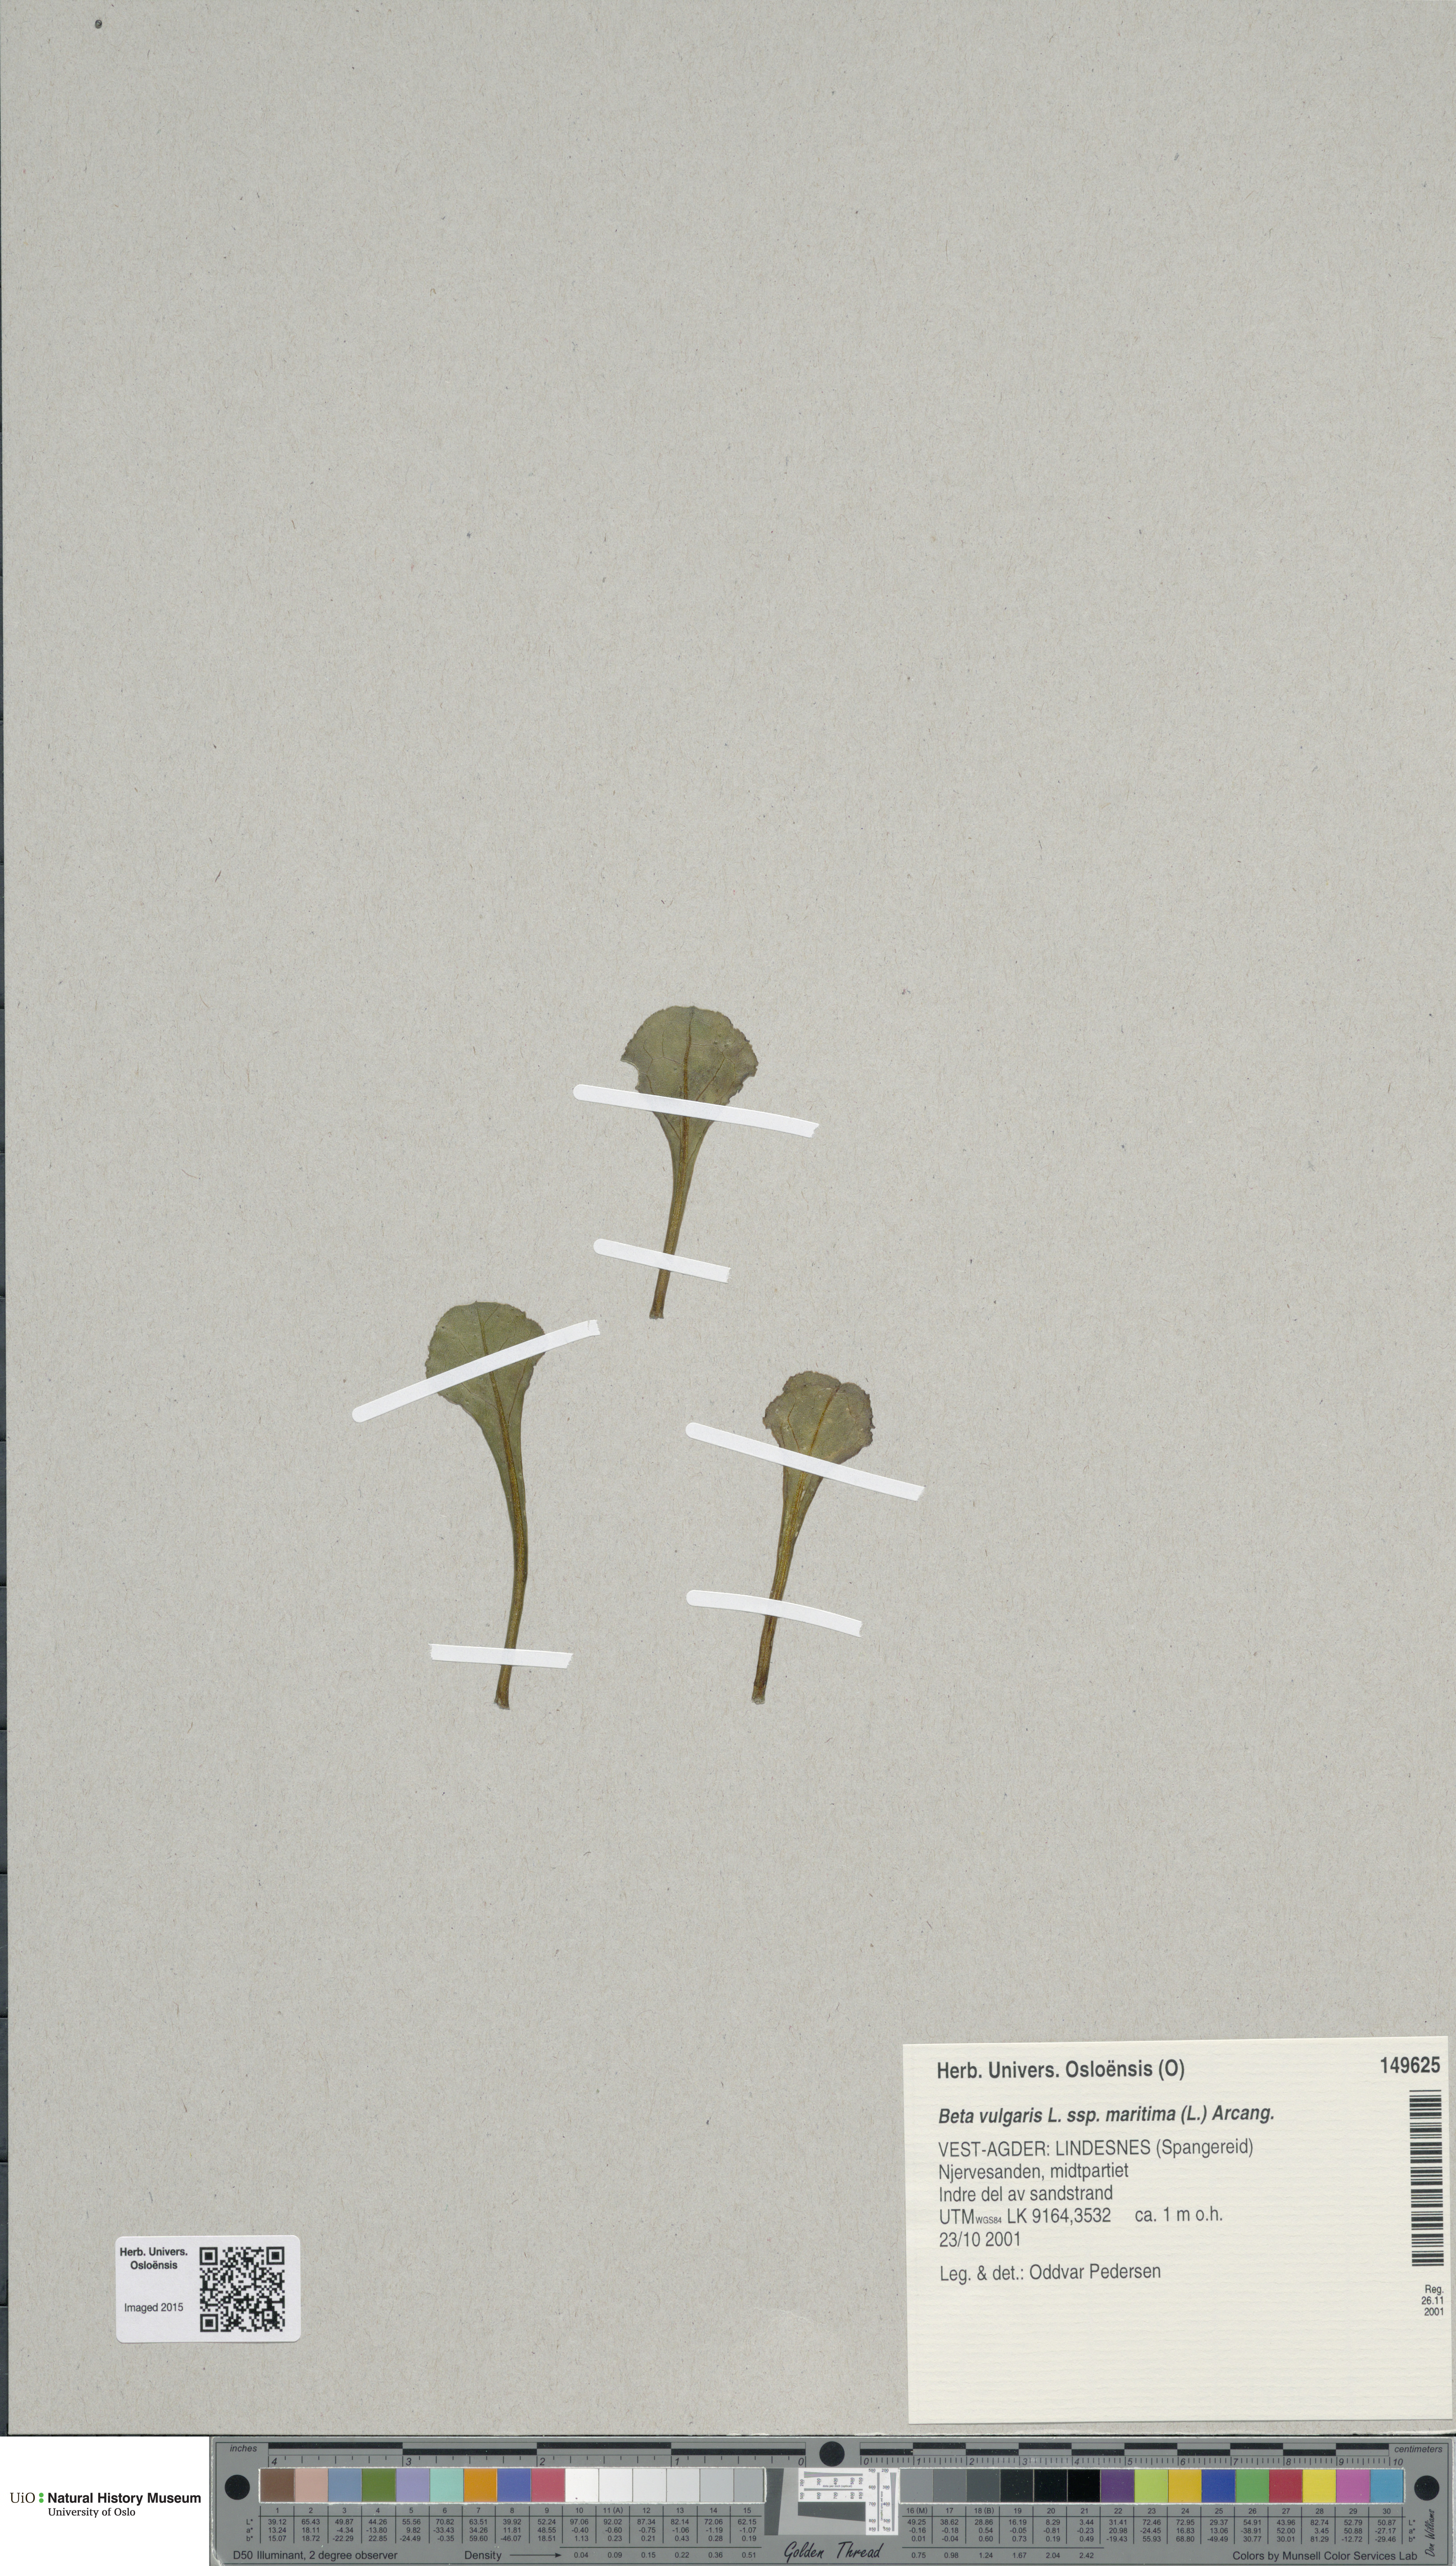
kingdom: Plantae
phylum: Tracheophyta
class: Magnoliopsida
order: Caryophyllales
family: Amaranthaceae
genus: Beta
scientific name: Beta maritima
